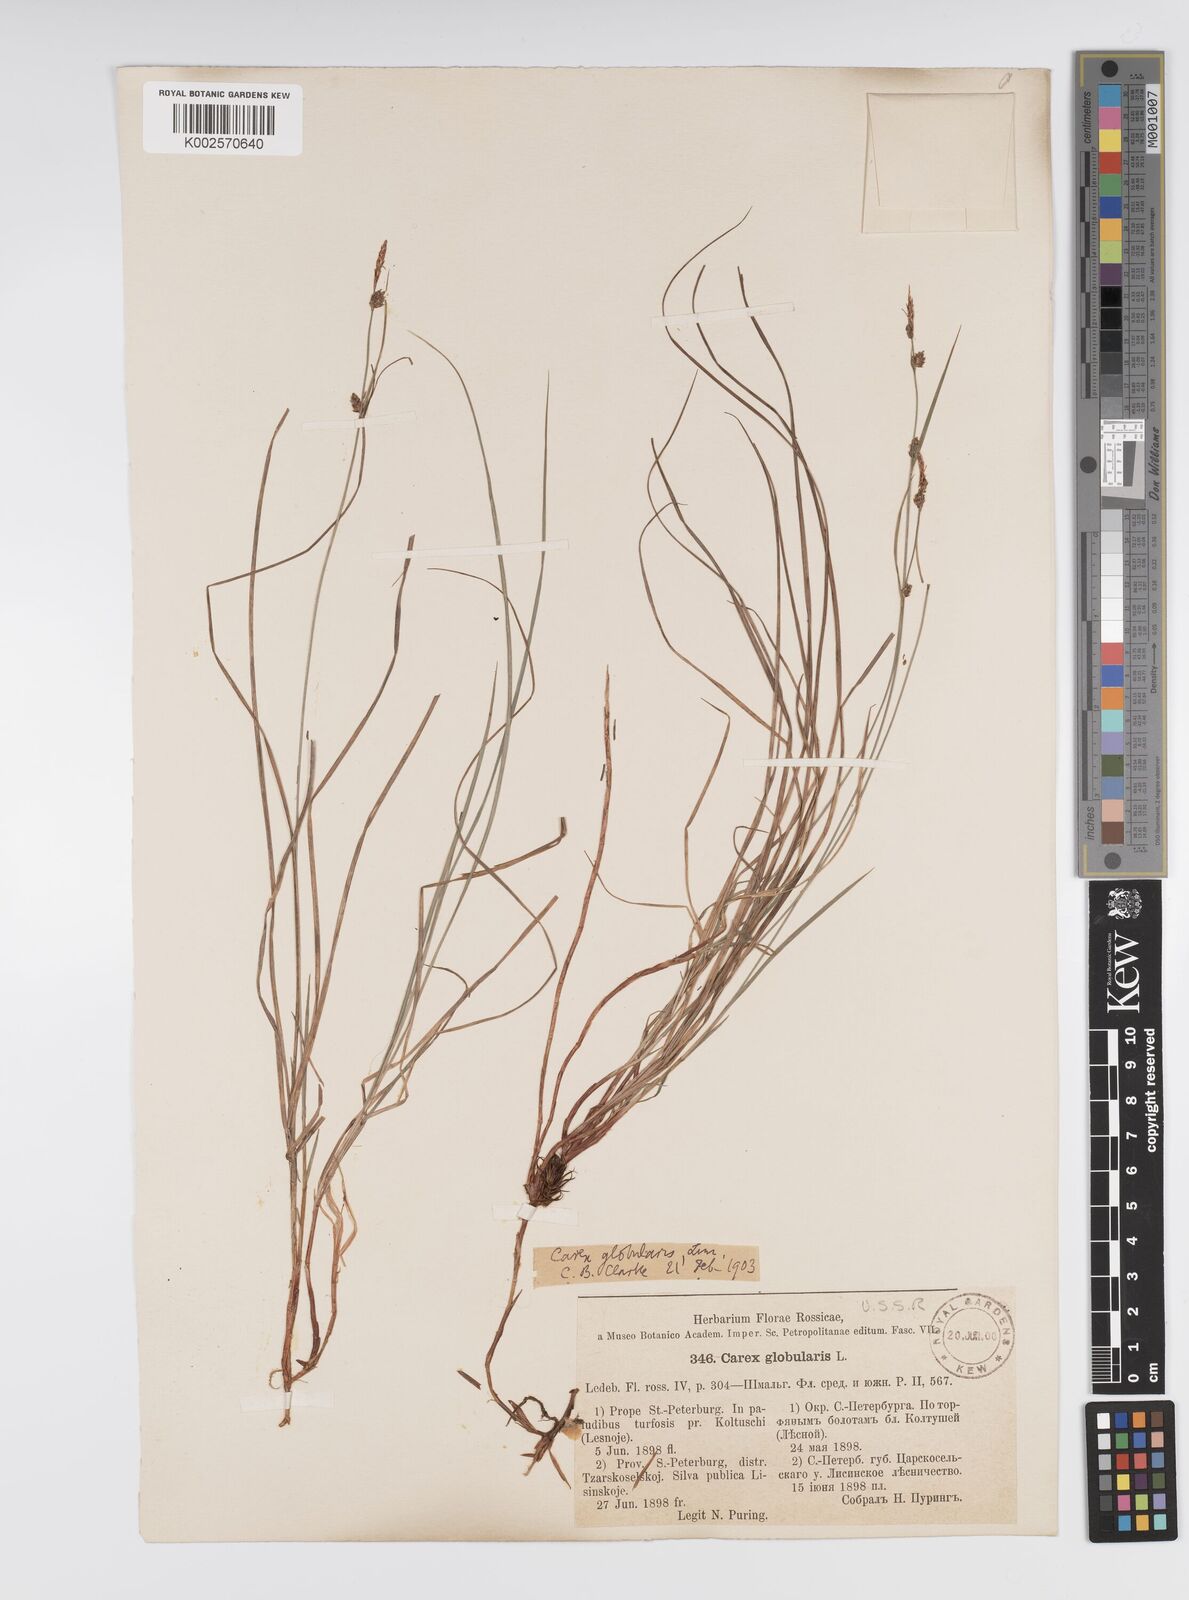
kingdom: Plantae
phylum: Tracheophyta
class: Liliopsida
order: Poales
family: Cyperaceae
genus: Carex
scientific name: Carex globularis
